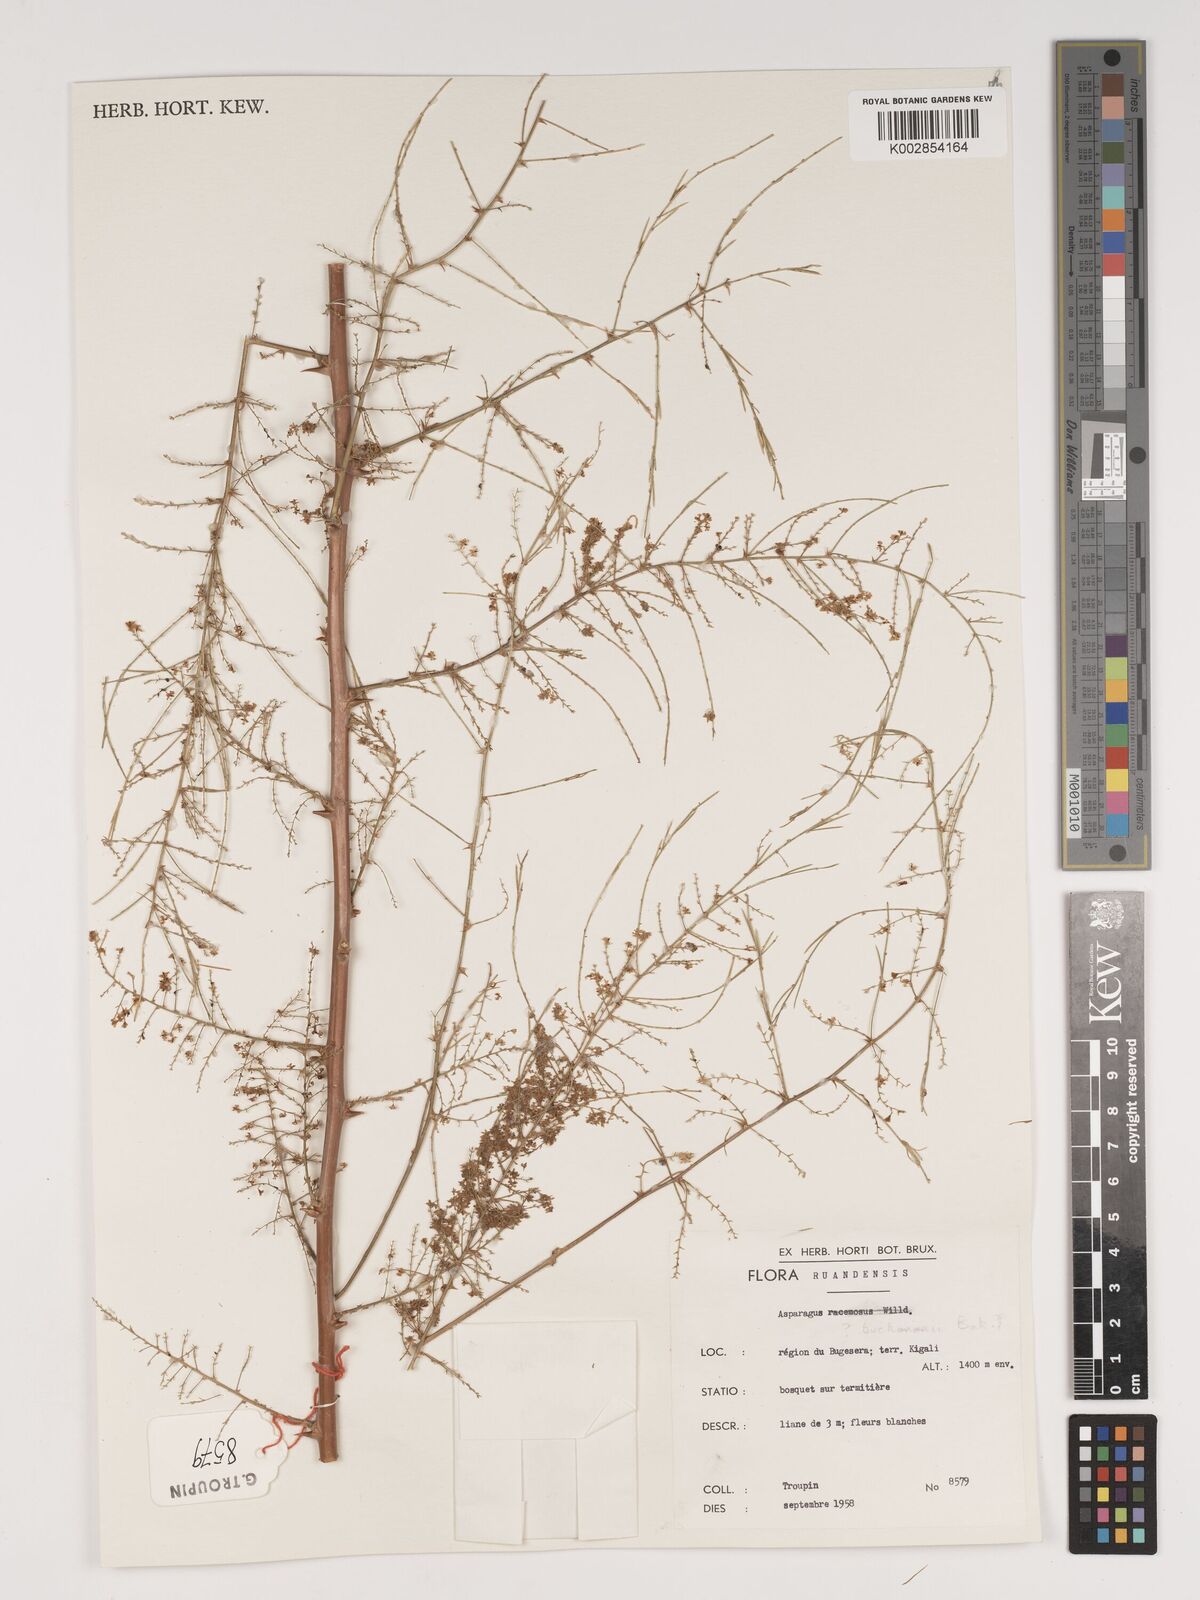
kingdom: Plantae
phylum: Tracheophyta
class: Liliopsida
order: Asparagales
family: Asparagaceae
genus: Asparagus
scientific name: Asparagus buchananii
